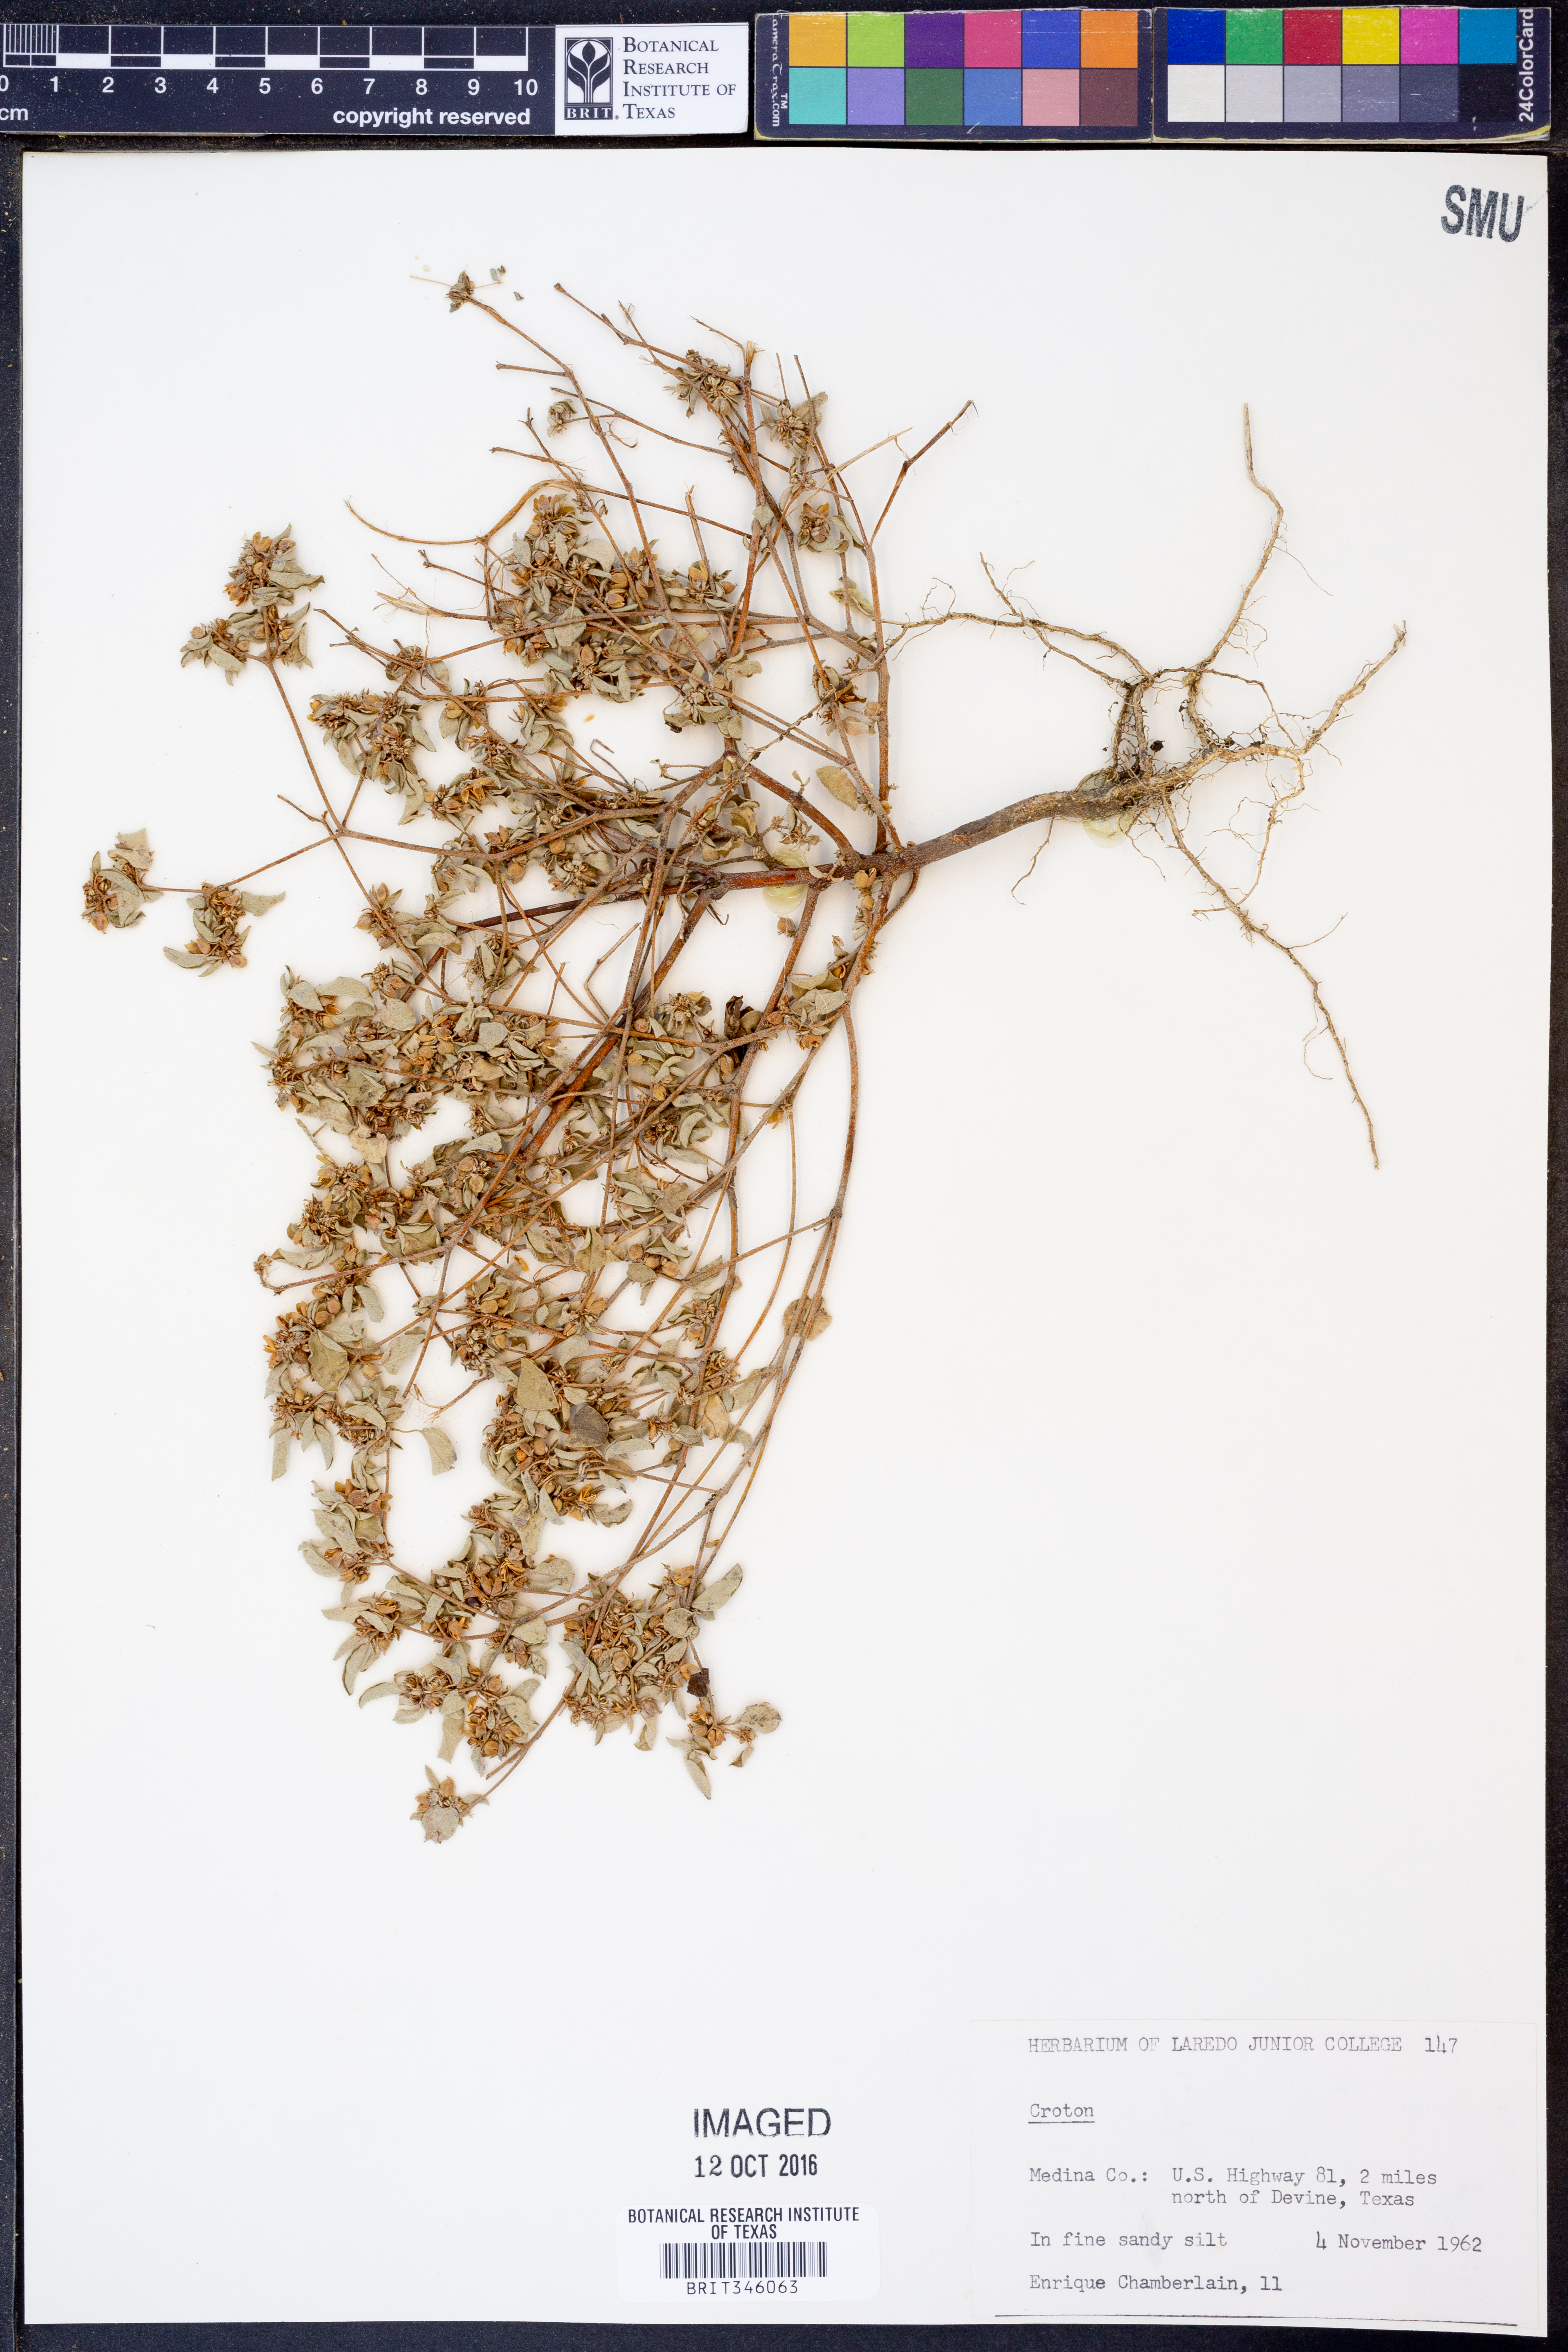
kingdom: Plantae
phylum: Tracheophyta
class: Magnoliopsida
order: Malpighiales
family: Euphorbiaceae
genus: Croton
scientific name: Croton
